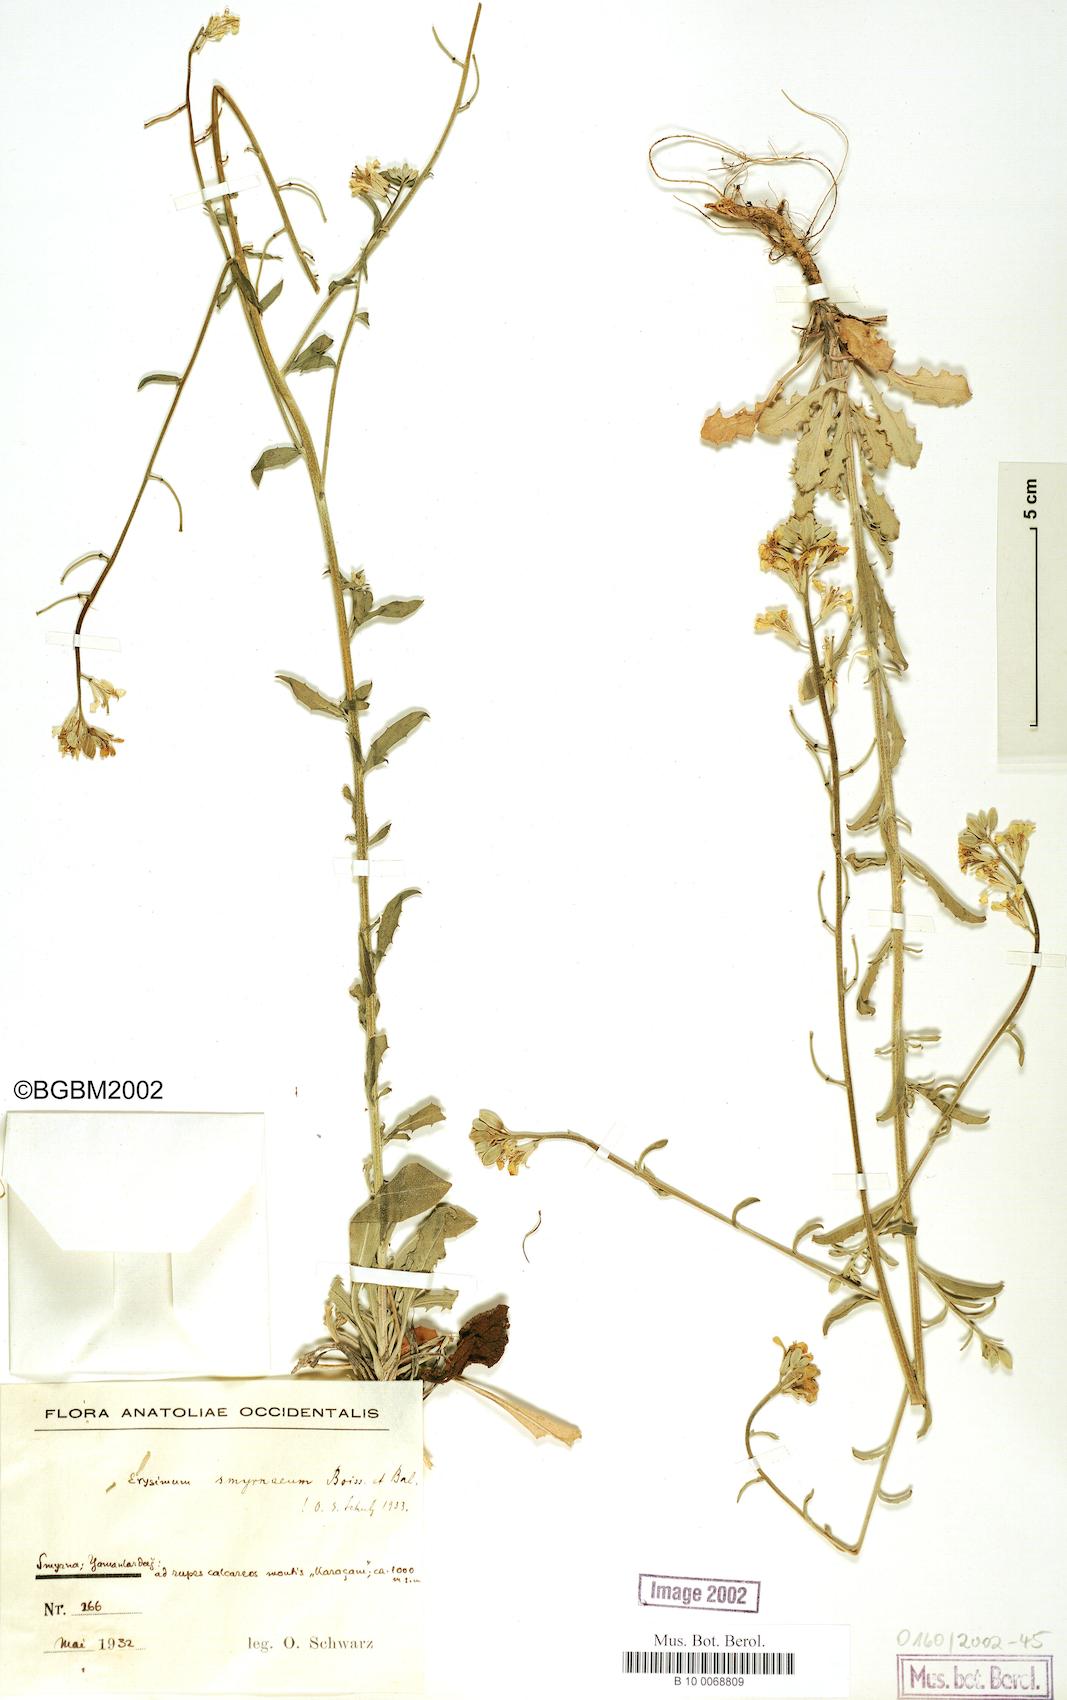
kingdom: Plantae
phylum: Tracheophyta
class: Magnoliopsida
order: Brassicales
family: Brassicaceae
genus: Erysimum
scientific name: Erysimum smyrnaeum
